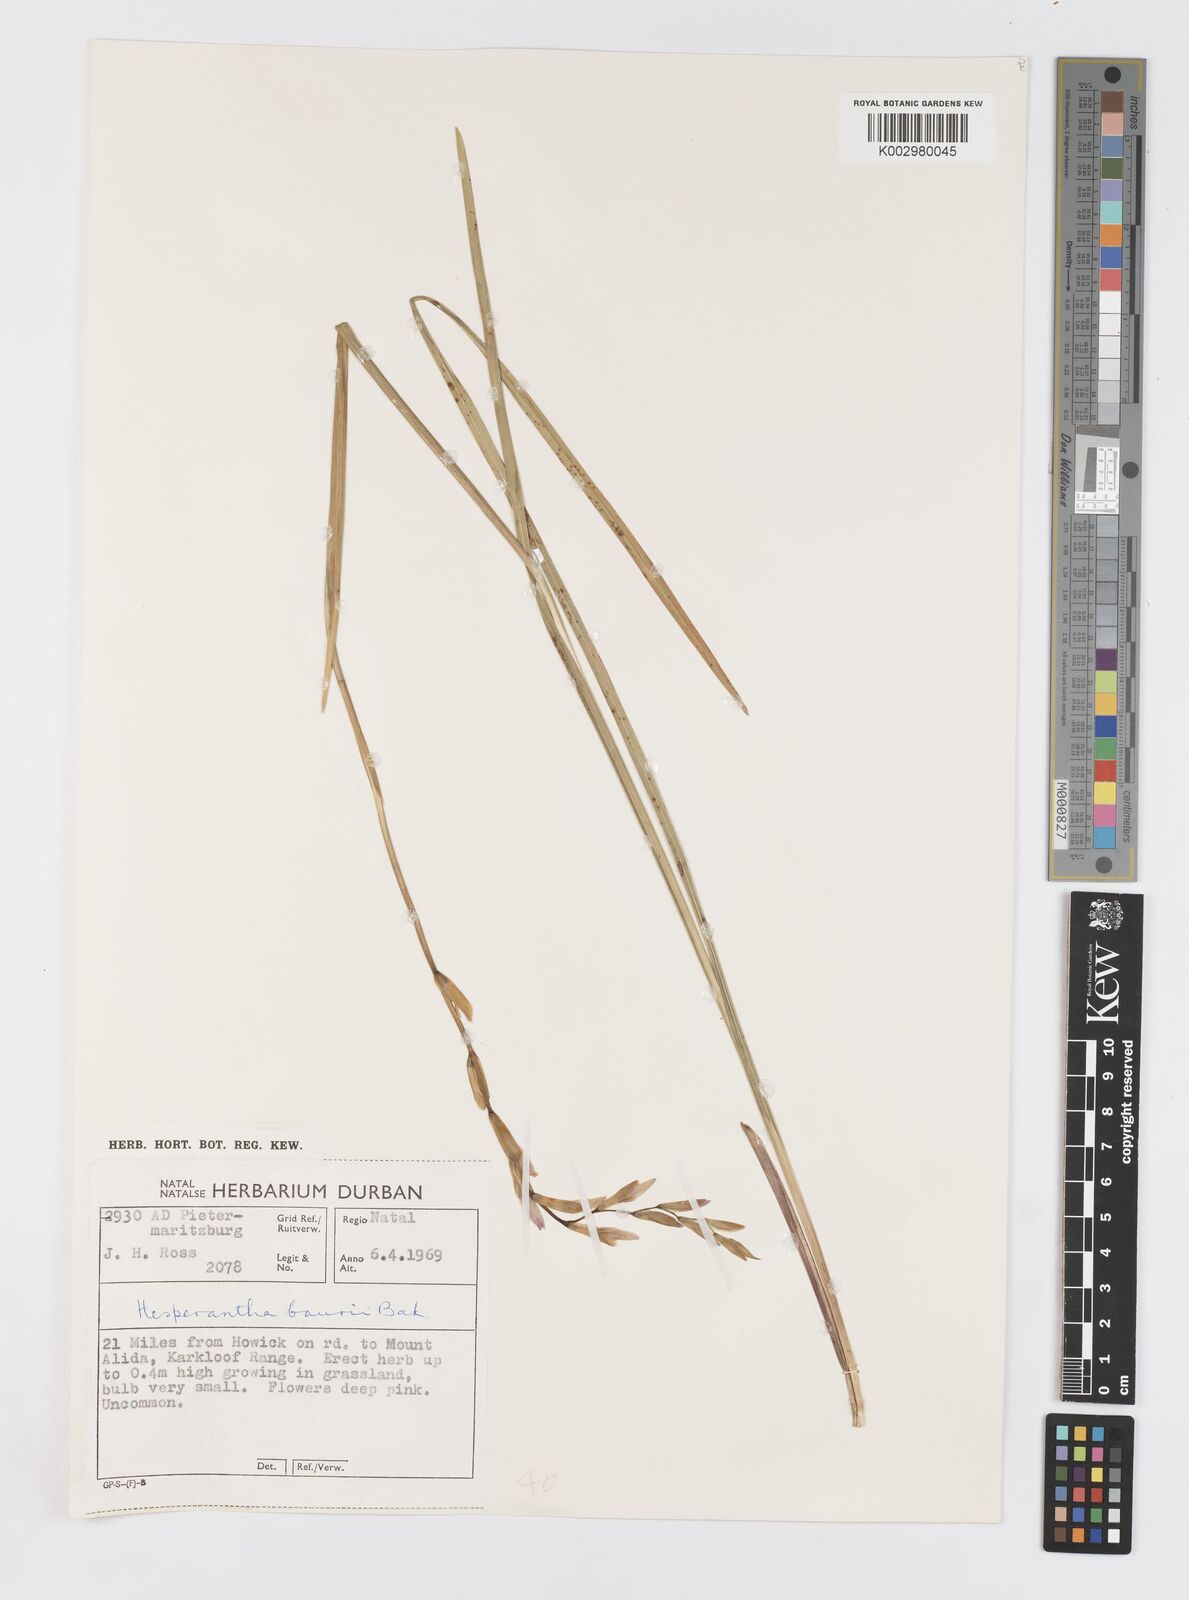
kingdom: Plantae
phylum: Tracheophyta
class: Liliopsida
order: Asparagales
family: Iridaceae
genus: Hesperantha
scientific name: Hesperantha baurii
